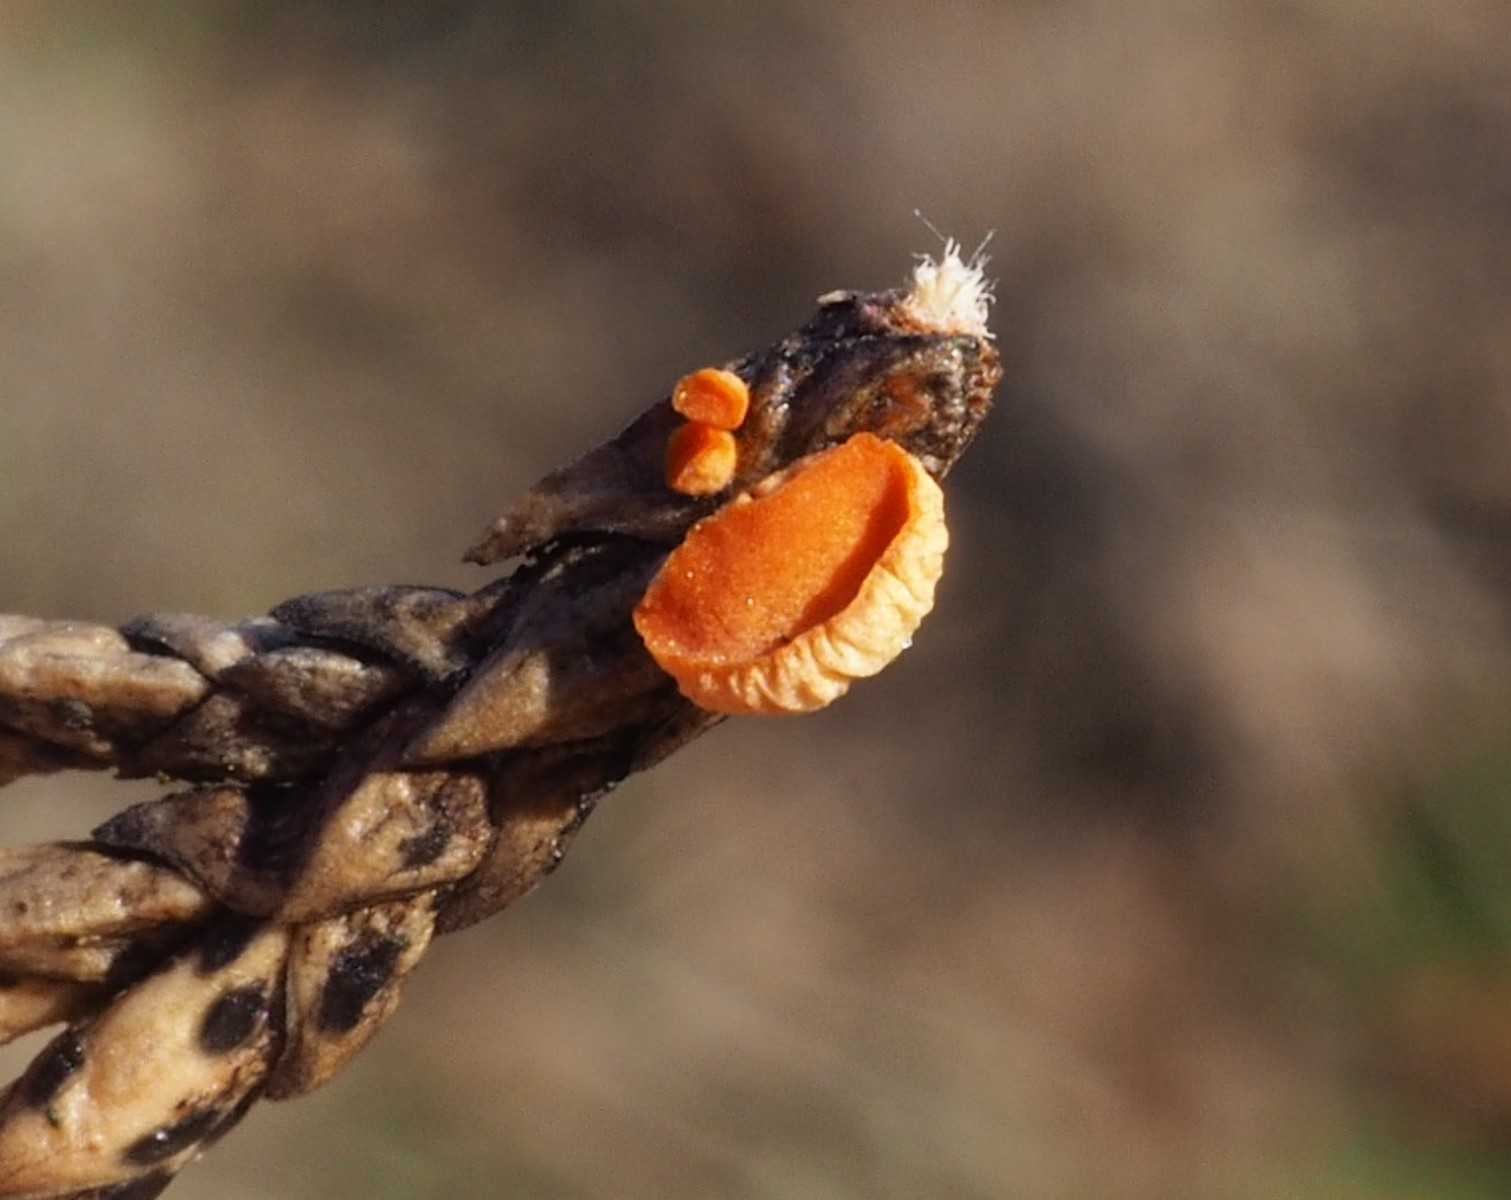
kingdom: Fungi
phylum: Ascomycota
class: Pezizomycetes
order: Pezizales
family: Sarcoscyphaceae
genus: Pithya
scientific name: Pithya cupressina
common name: lille dukatbæger
